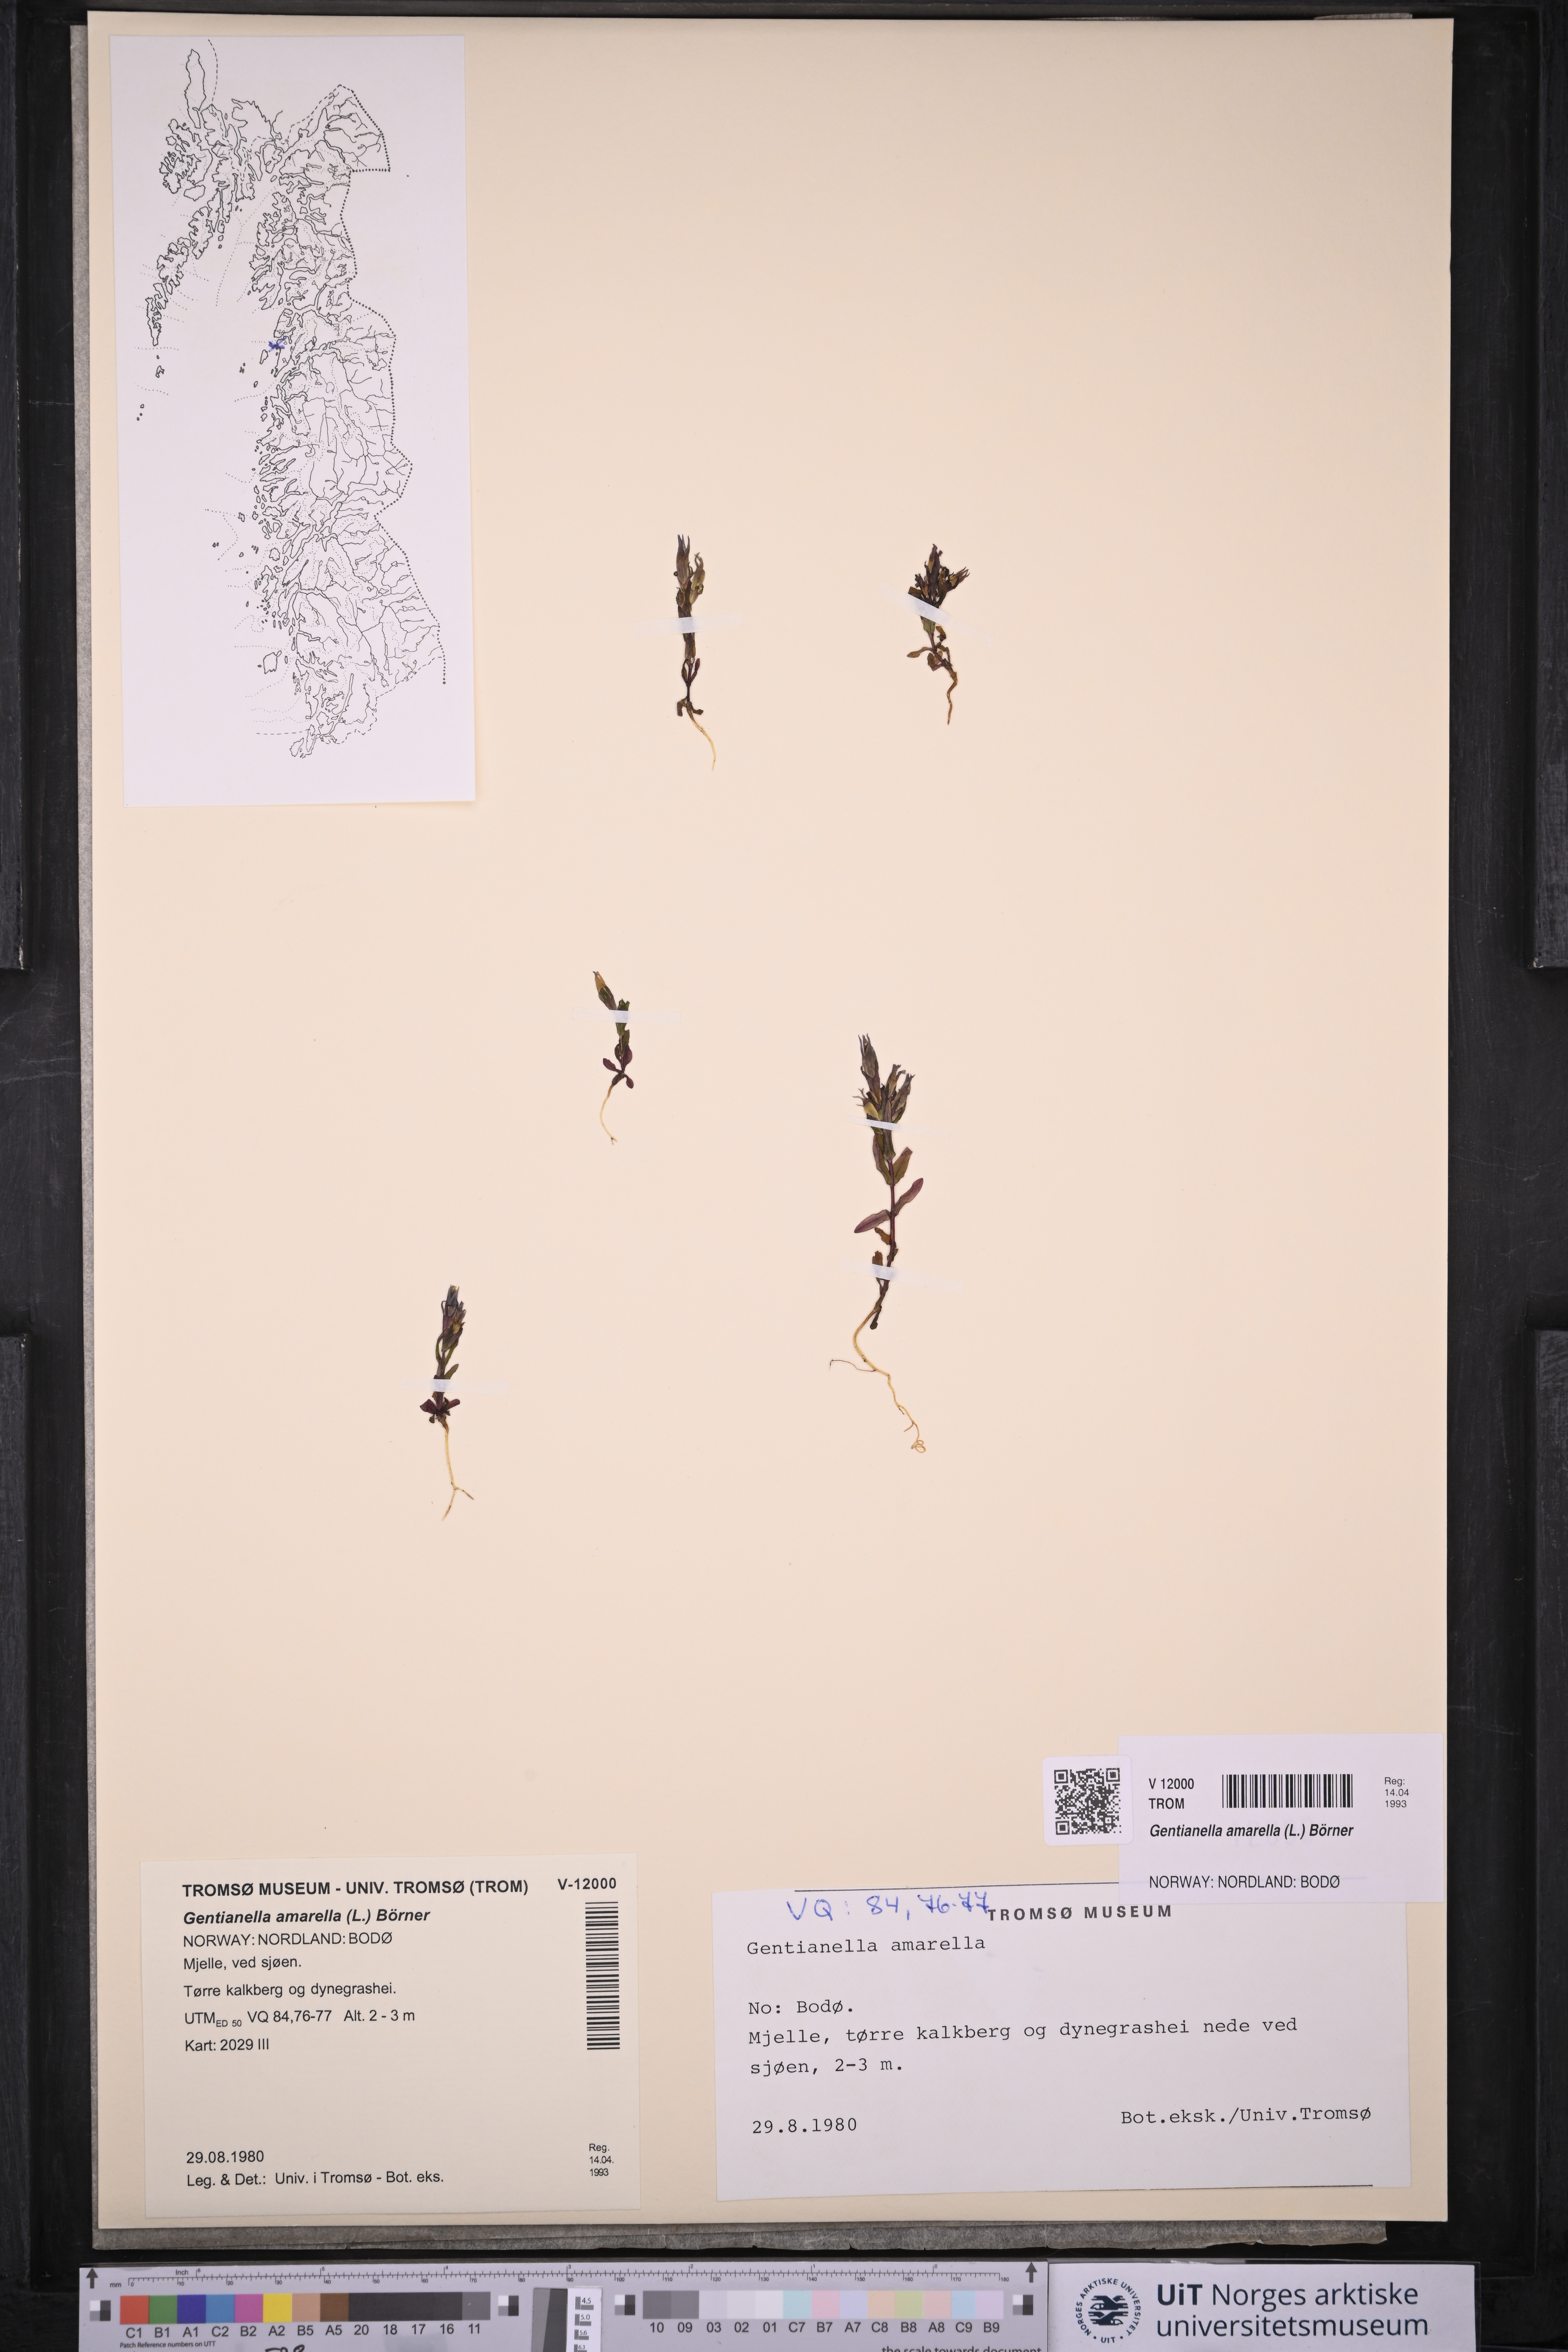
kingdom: Plantae
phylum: Tracheophyta
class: Magnoliopsida
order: Gentianales
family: Gentianaceae
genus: Gentianella
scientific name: Gentianella amarella
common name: Autumn gentian
